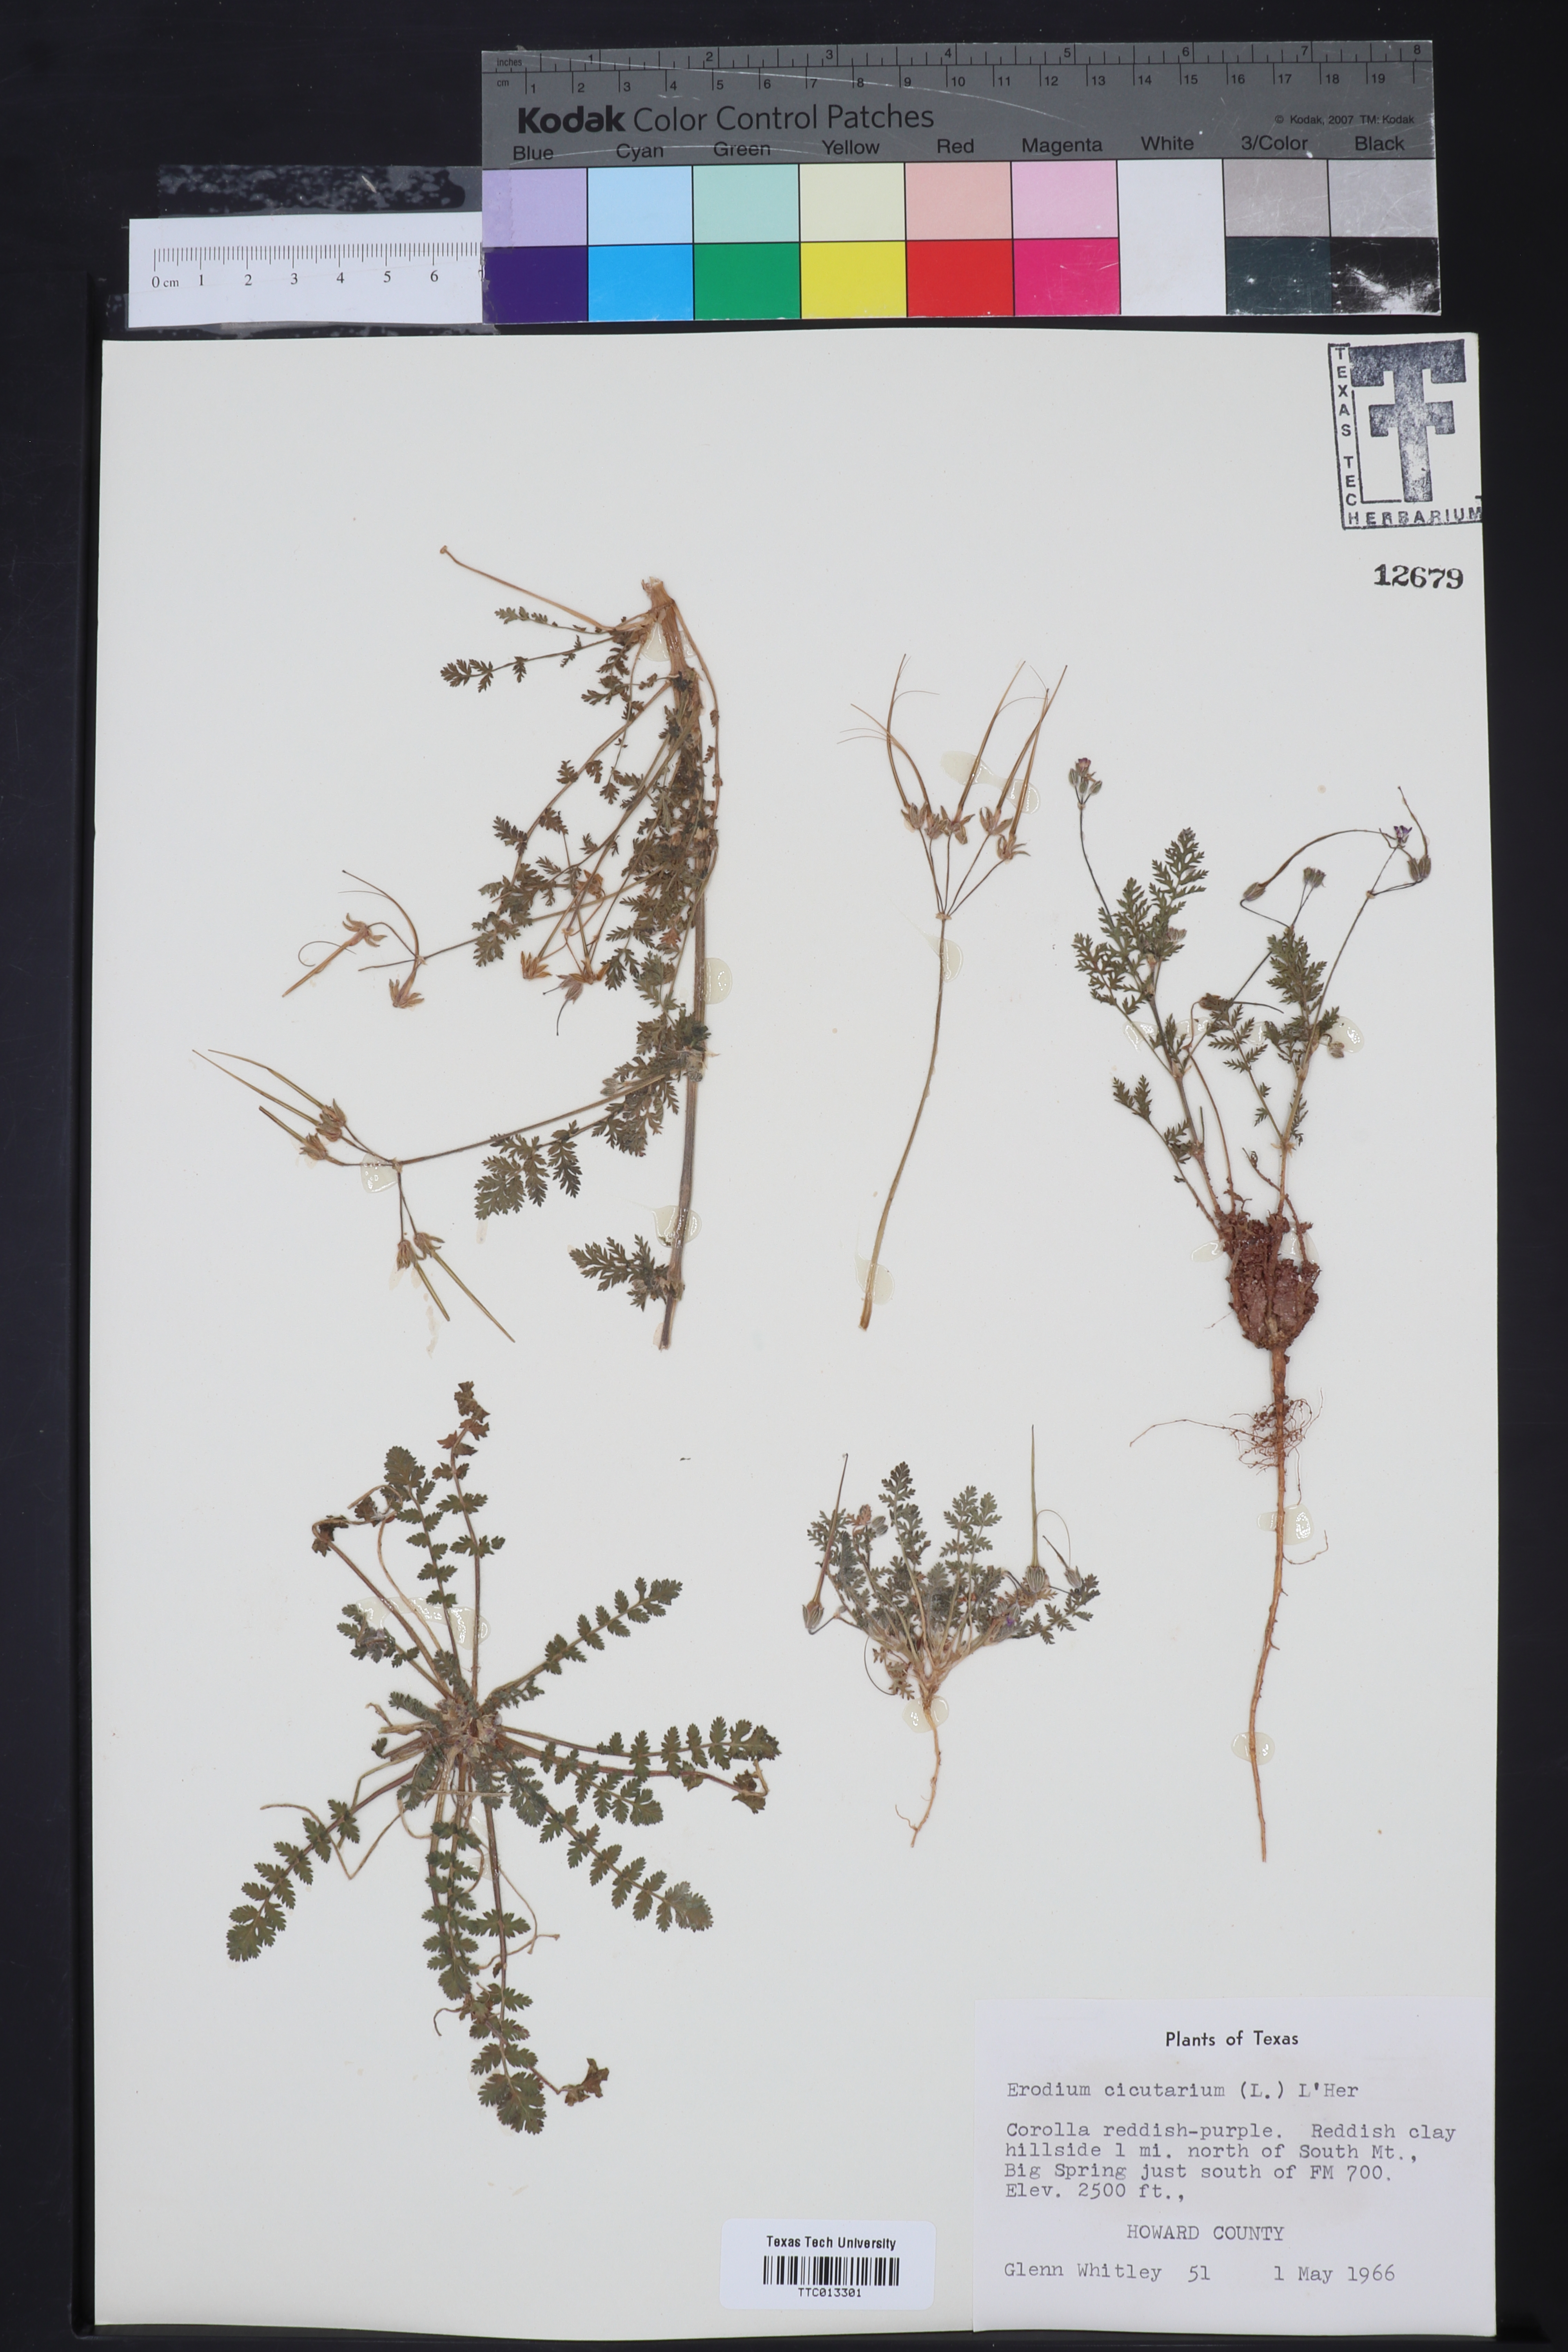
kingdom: Plantae
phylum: Tracheophyta
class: Magnoliopsida
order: Geraniales
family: Geraniaceae
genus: Erodium
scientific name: Erodium cicutarium
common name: Common stork's-bill
